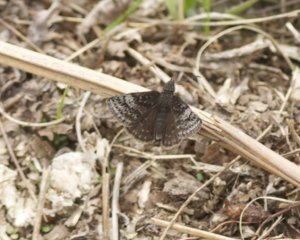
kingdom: Animalia
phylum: Arthropoda
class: Insecta
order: Lepidoptera
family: Hesperiidae
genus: Erynnis
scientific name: Erynnis icelus
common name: Dreamy Duskywing
